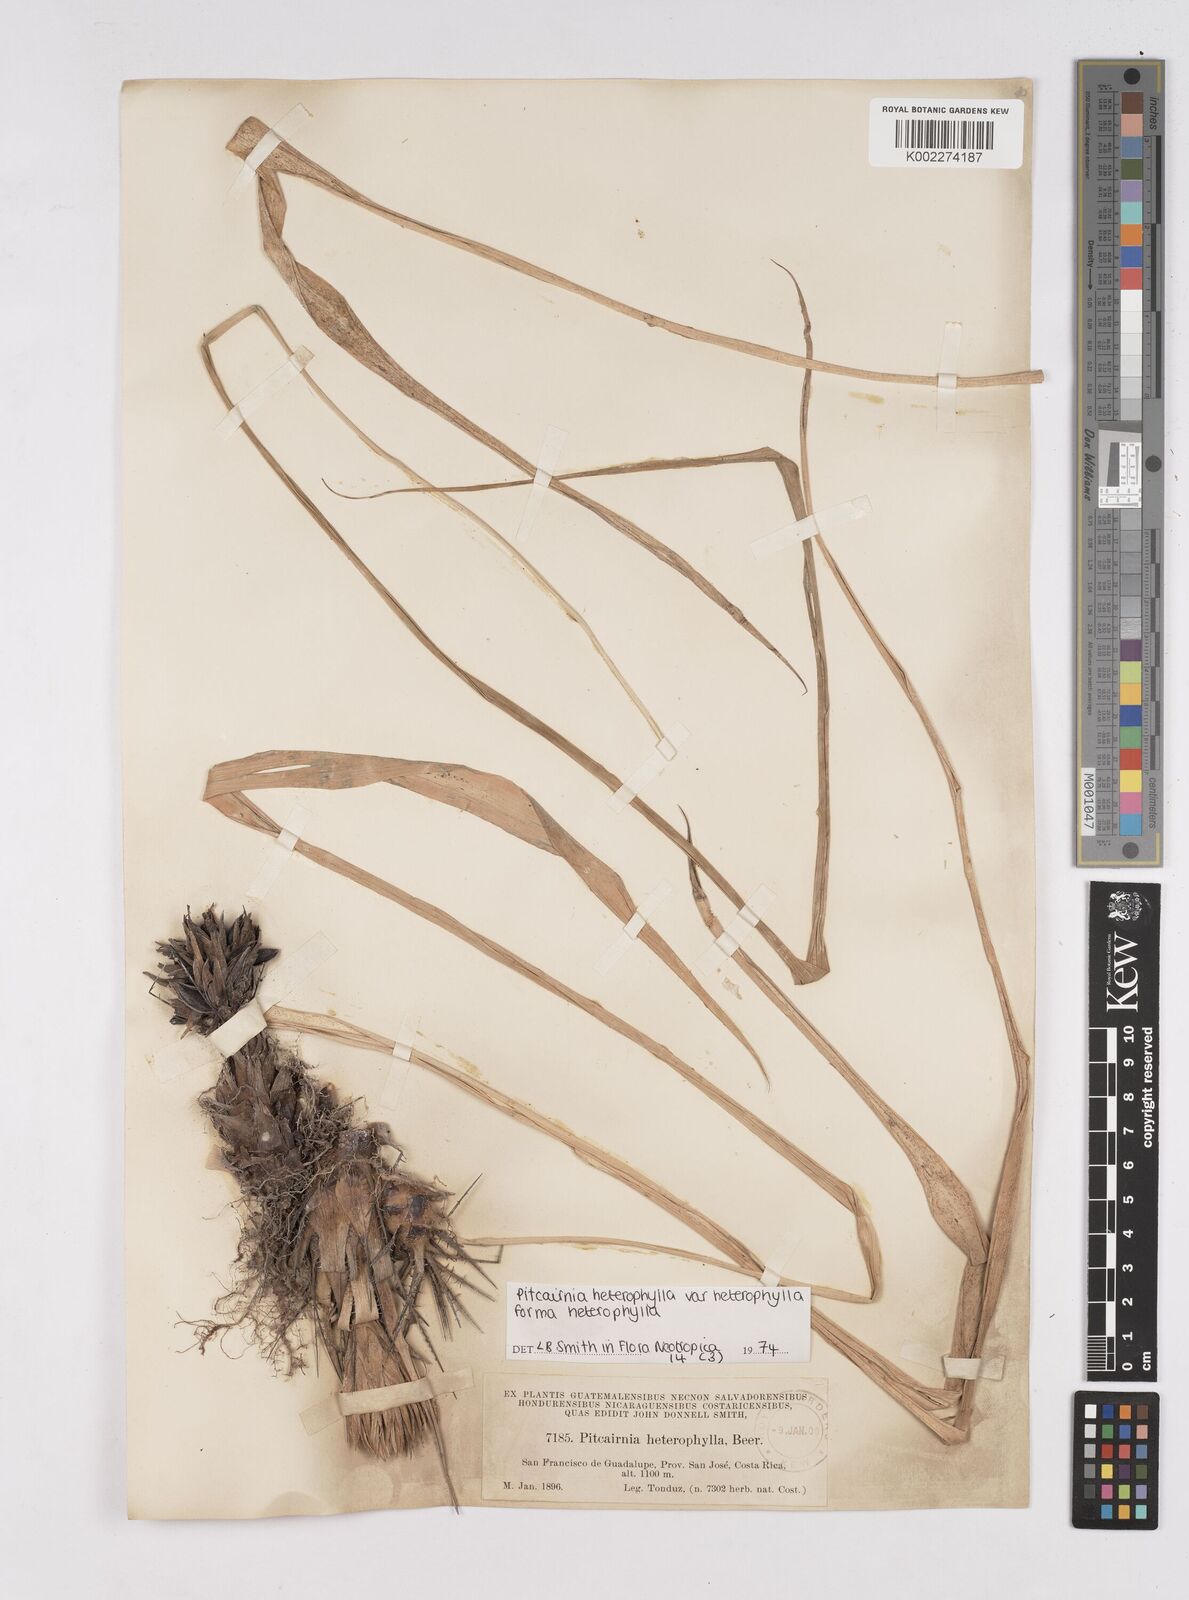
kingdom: Plantae
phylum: Tracheophyta
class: Liliopsida
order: Poales
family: Bromeliaceae
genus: Pitcairnia
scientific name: Pitcairnia heterophylla
